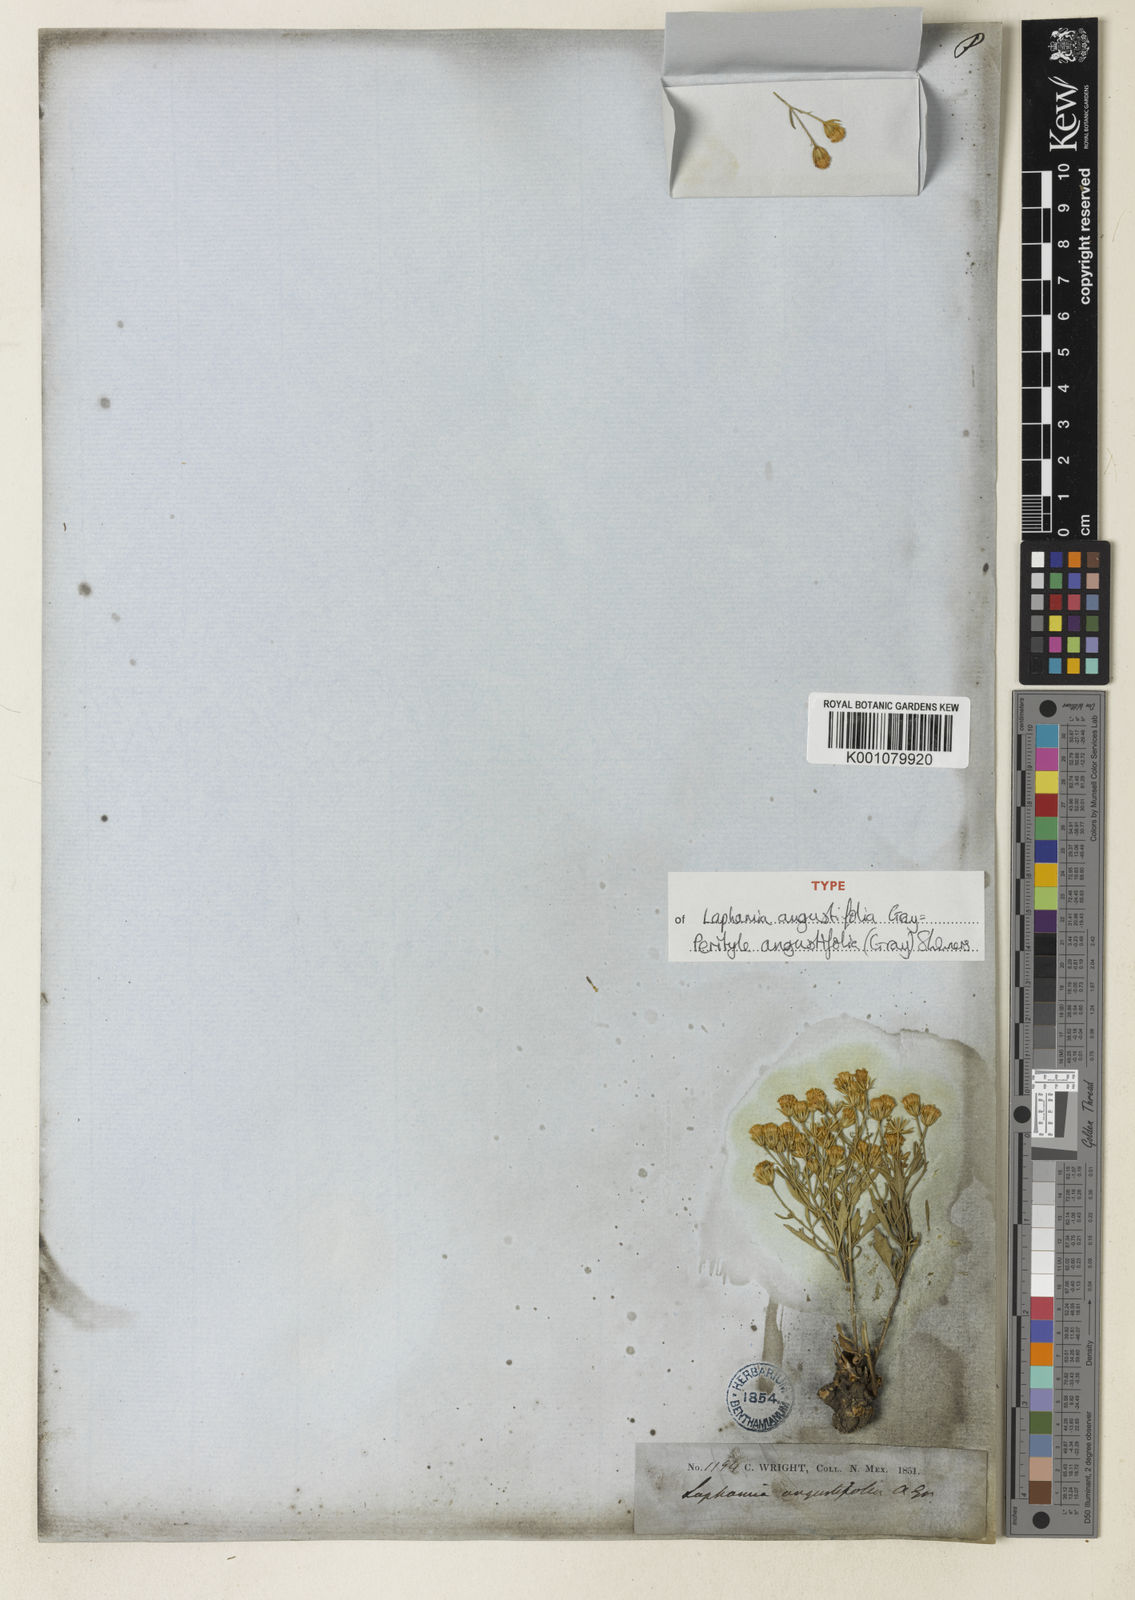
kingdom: Plantae
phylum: Tracheophyta
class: Magnoliopsida
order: Asterales
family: Asteraceae
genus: Laphamia
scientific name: Laphamia angustifolia
